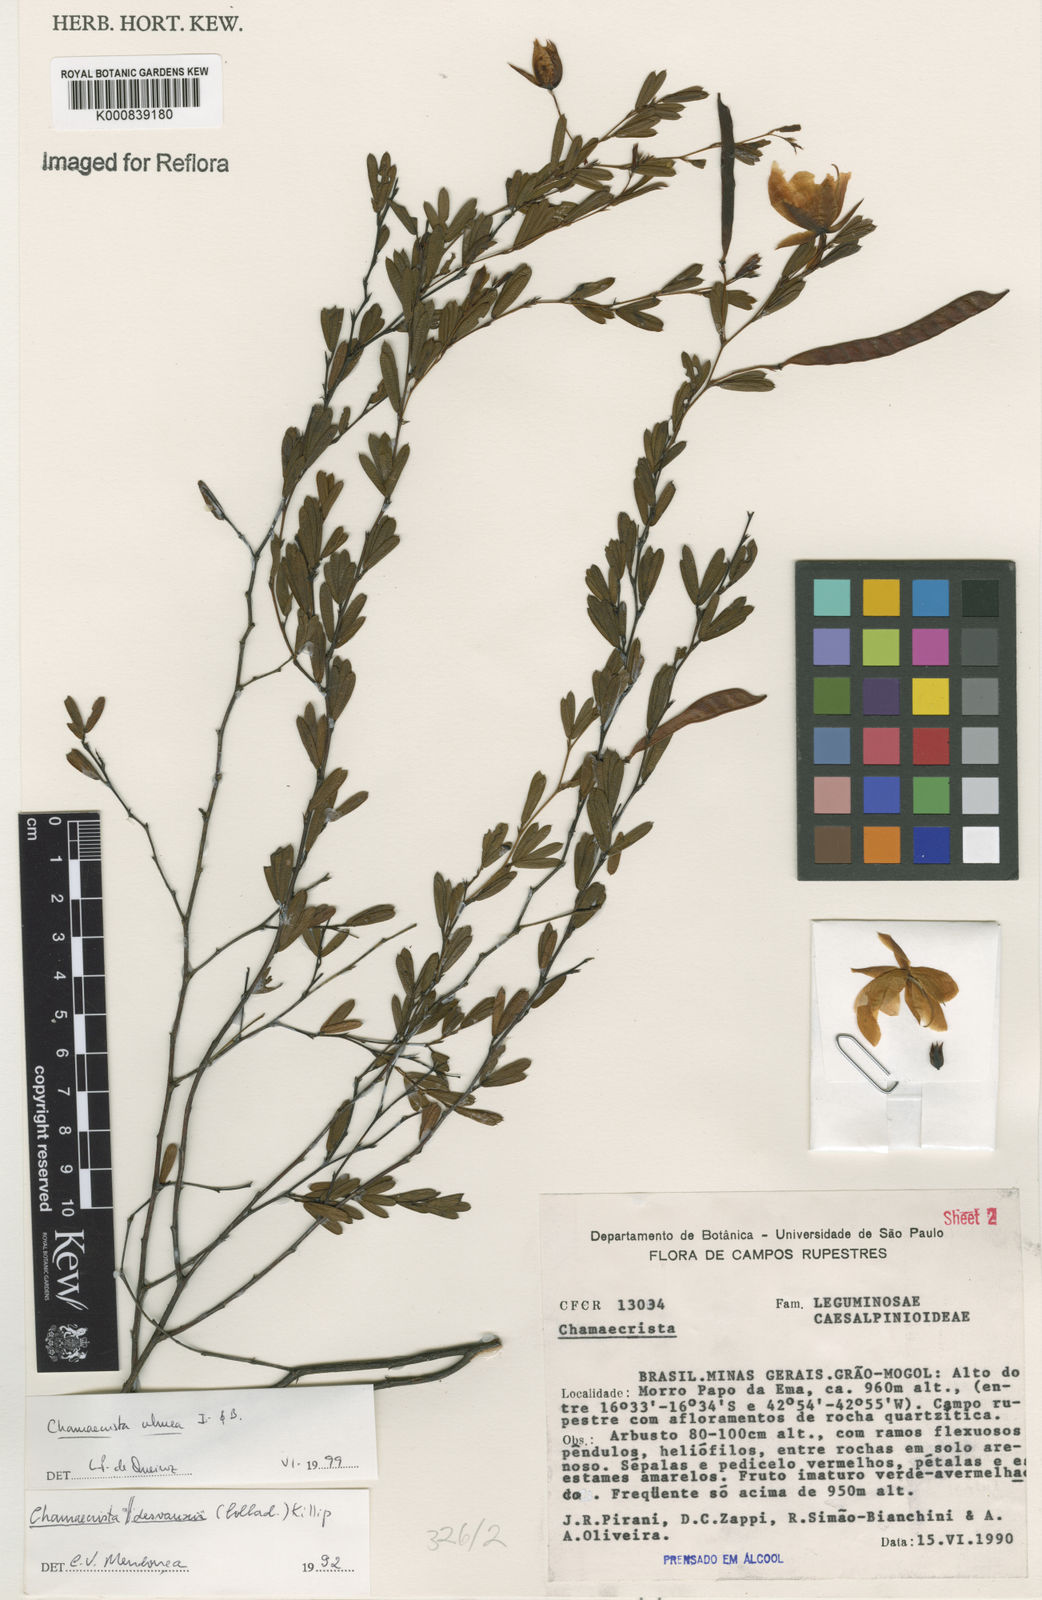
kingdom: Plantae
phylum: Tracheophyta
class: Magnoliopsida
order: Fabales
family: Fabaceae
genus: Chamaecrista
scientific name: Chamaecrista ulmea
